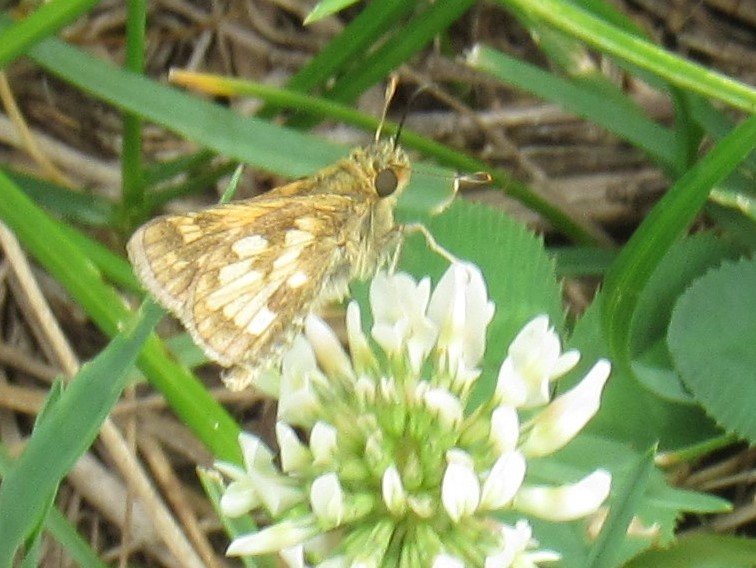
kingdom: Animalia
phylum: Arthropoda
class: Insecta
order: Lepidoptera
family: Hesperiidae
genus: Polites
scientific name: Polites coras
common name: Peck's Skipper
